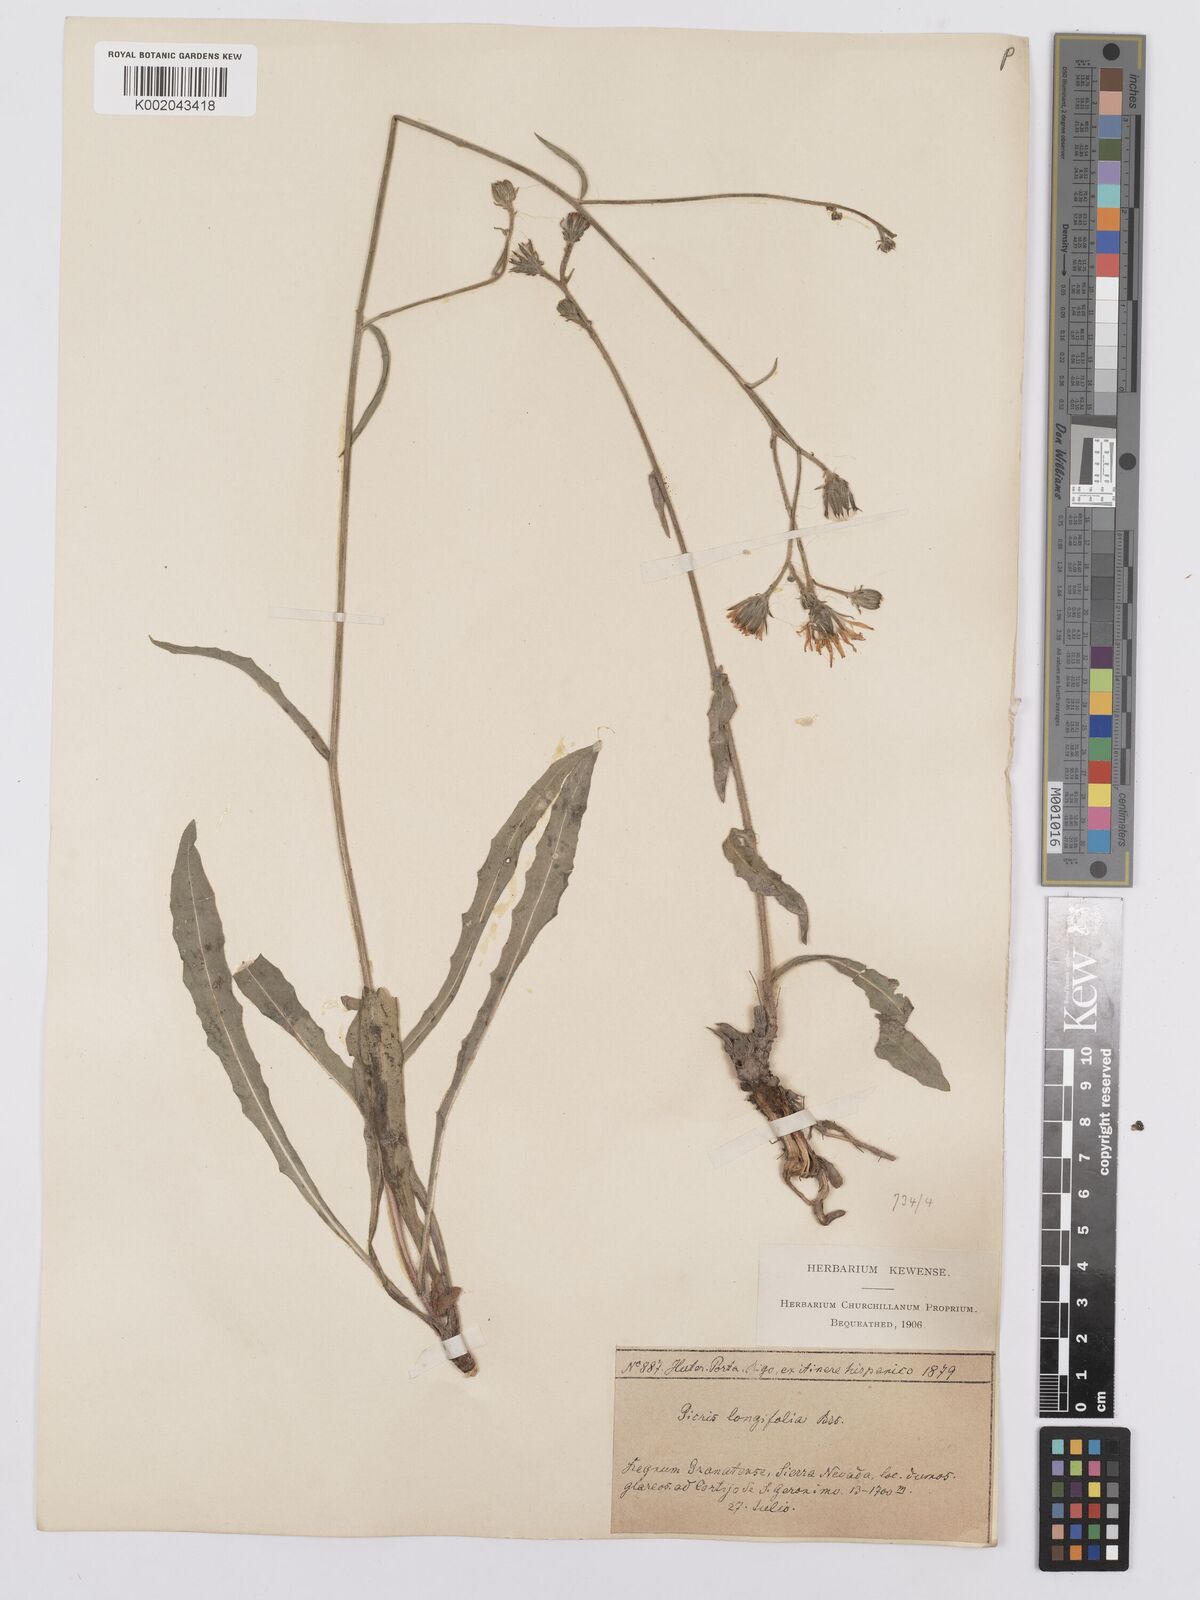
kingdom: Plantae
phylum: Tracheophyta
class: Magnoliopsida
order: Asterales
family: Asteraceae
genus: Picris
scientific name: Picris hieracioides
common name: Hawkweed oxtongue
